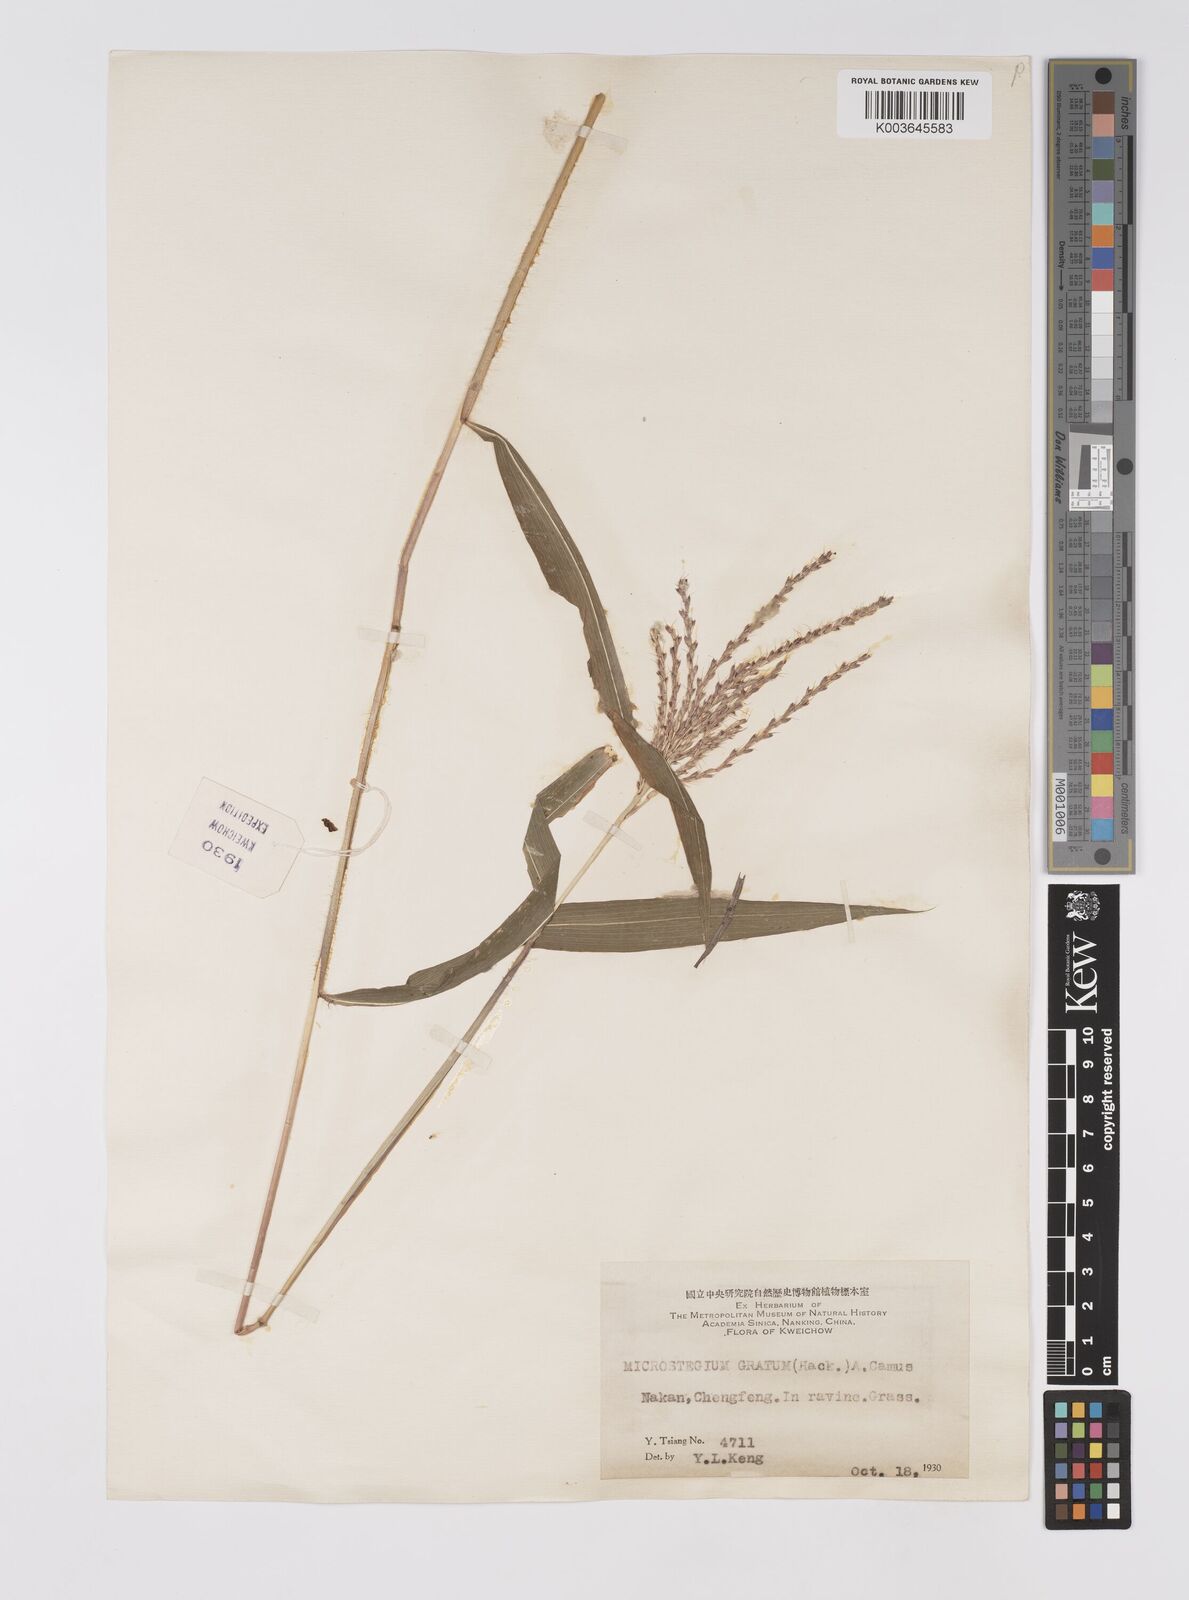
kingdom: Plantae
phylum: Tracheophyta
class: Liliopsida
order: Poales
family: Poaceae
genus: Microstegium
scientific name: Microstegium fasciculatum
